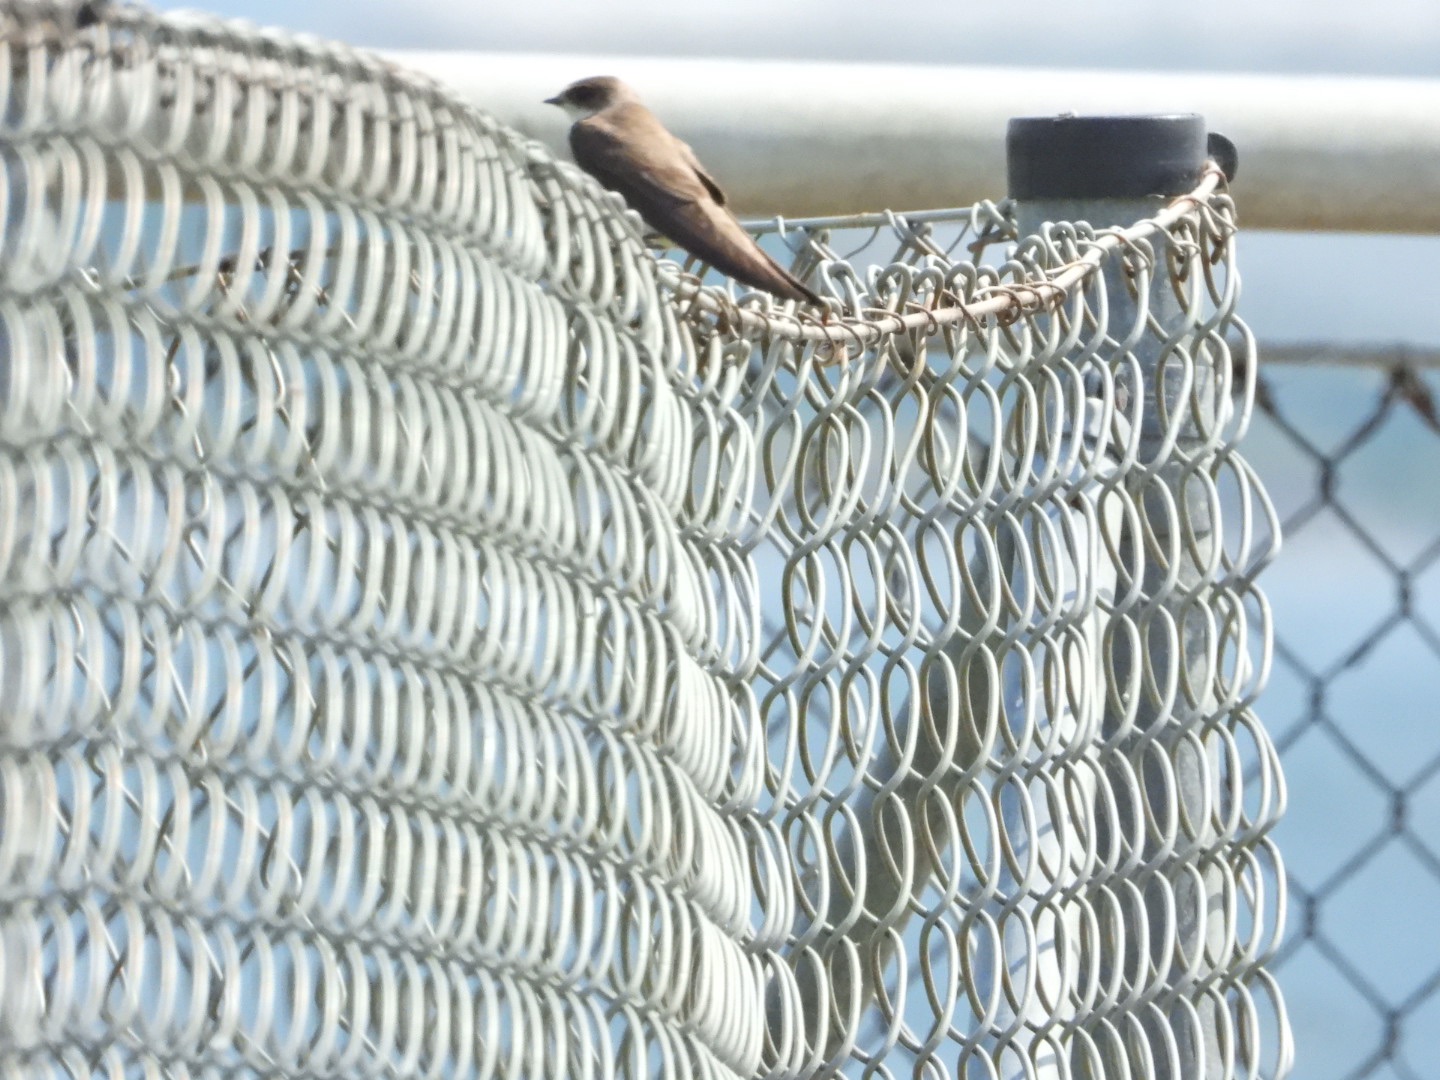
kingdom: Animalia
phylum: Chordata
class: Aves
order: Passeriformes
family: Hirundinidae
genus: Riparia
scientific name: Riparia riparia
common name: Digesvale
